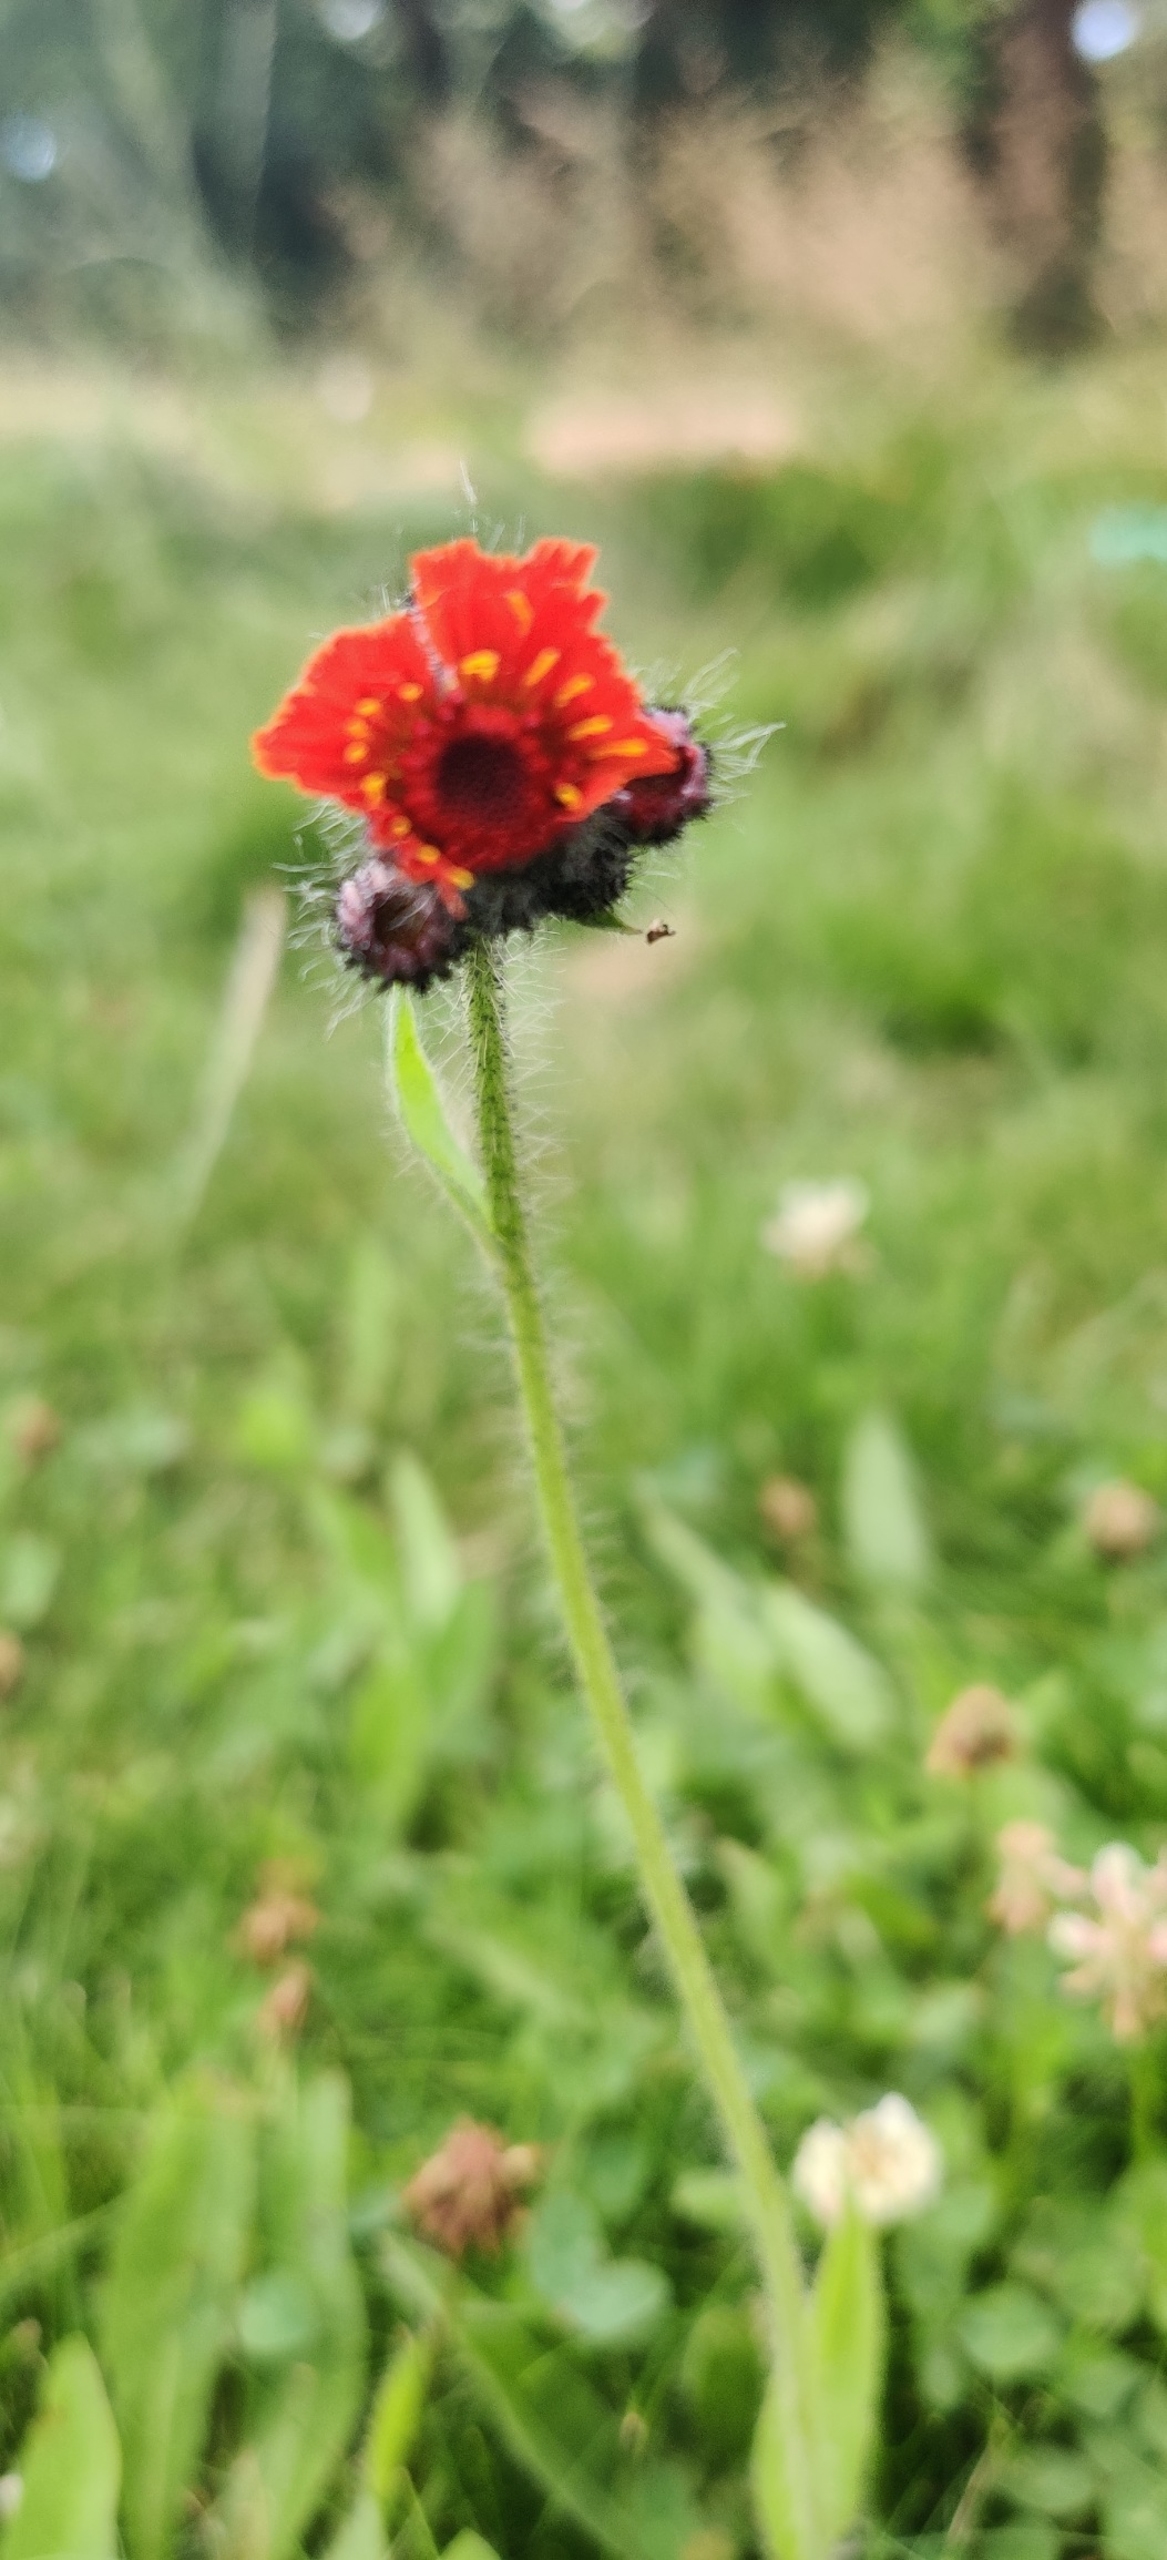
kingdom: Plantae
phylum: Tracheophyta
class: Magnoliopsida
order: Asterales
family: Asteraceae
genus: Pilosella
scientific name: Pilosella aurantiaca
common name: Pomerans-høgeurt
